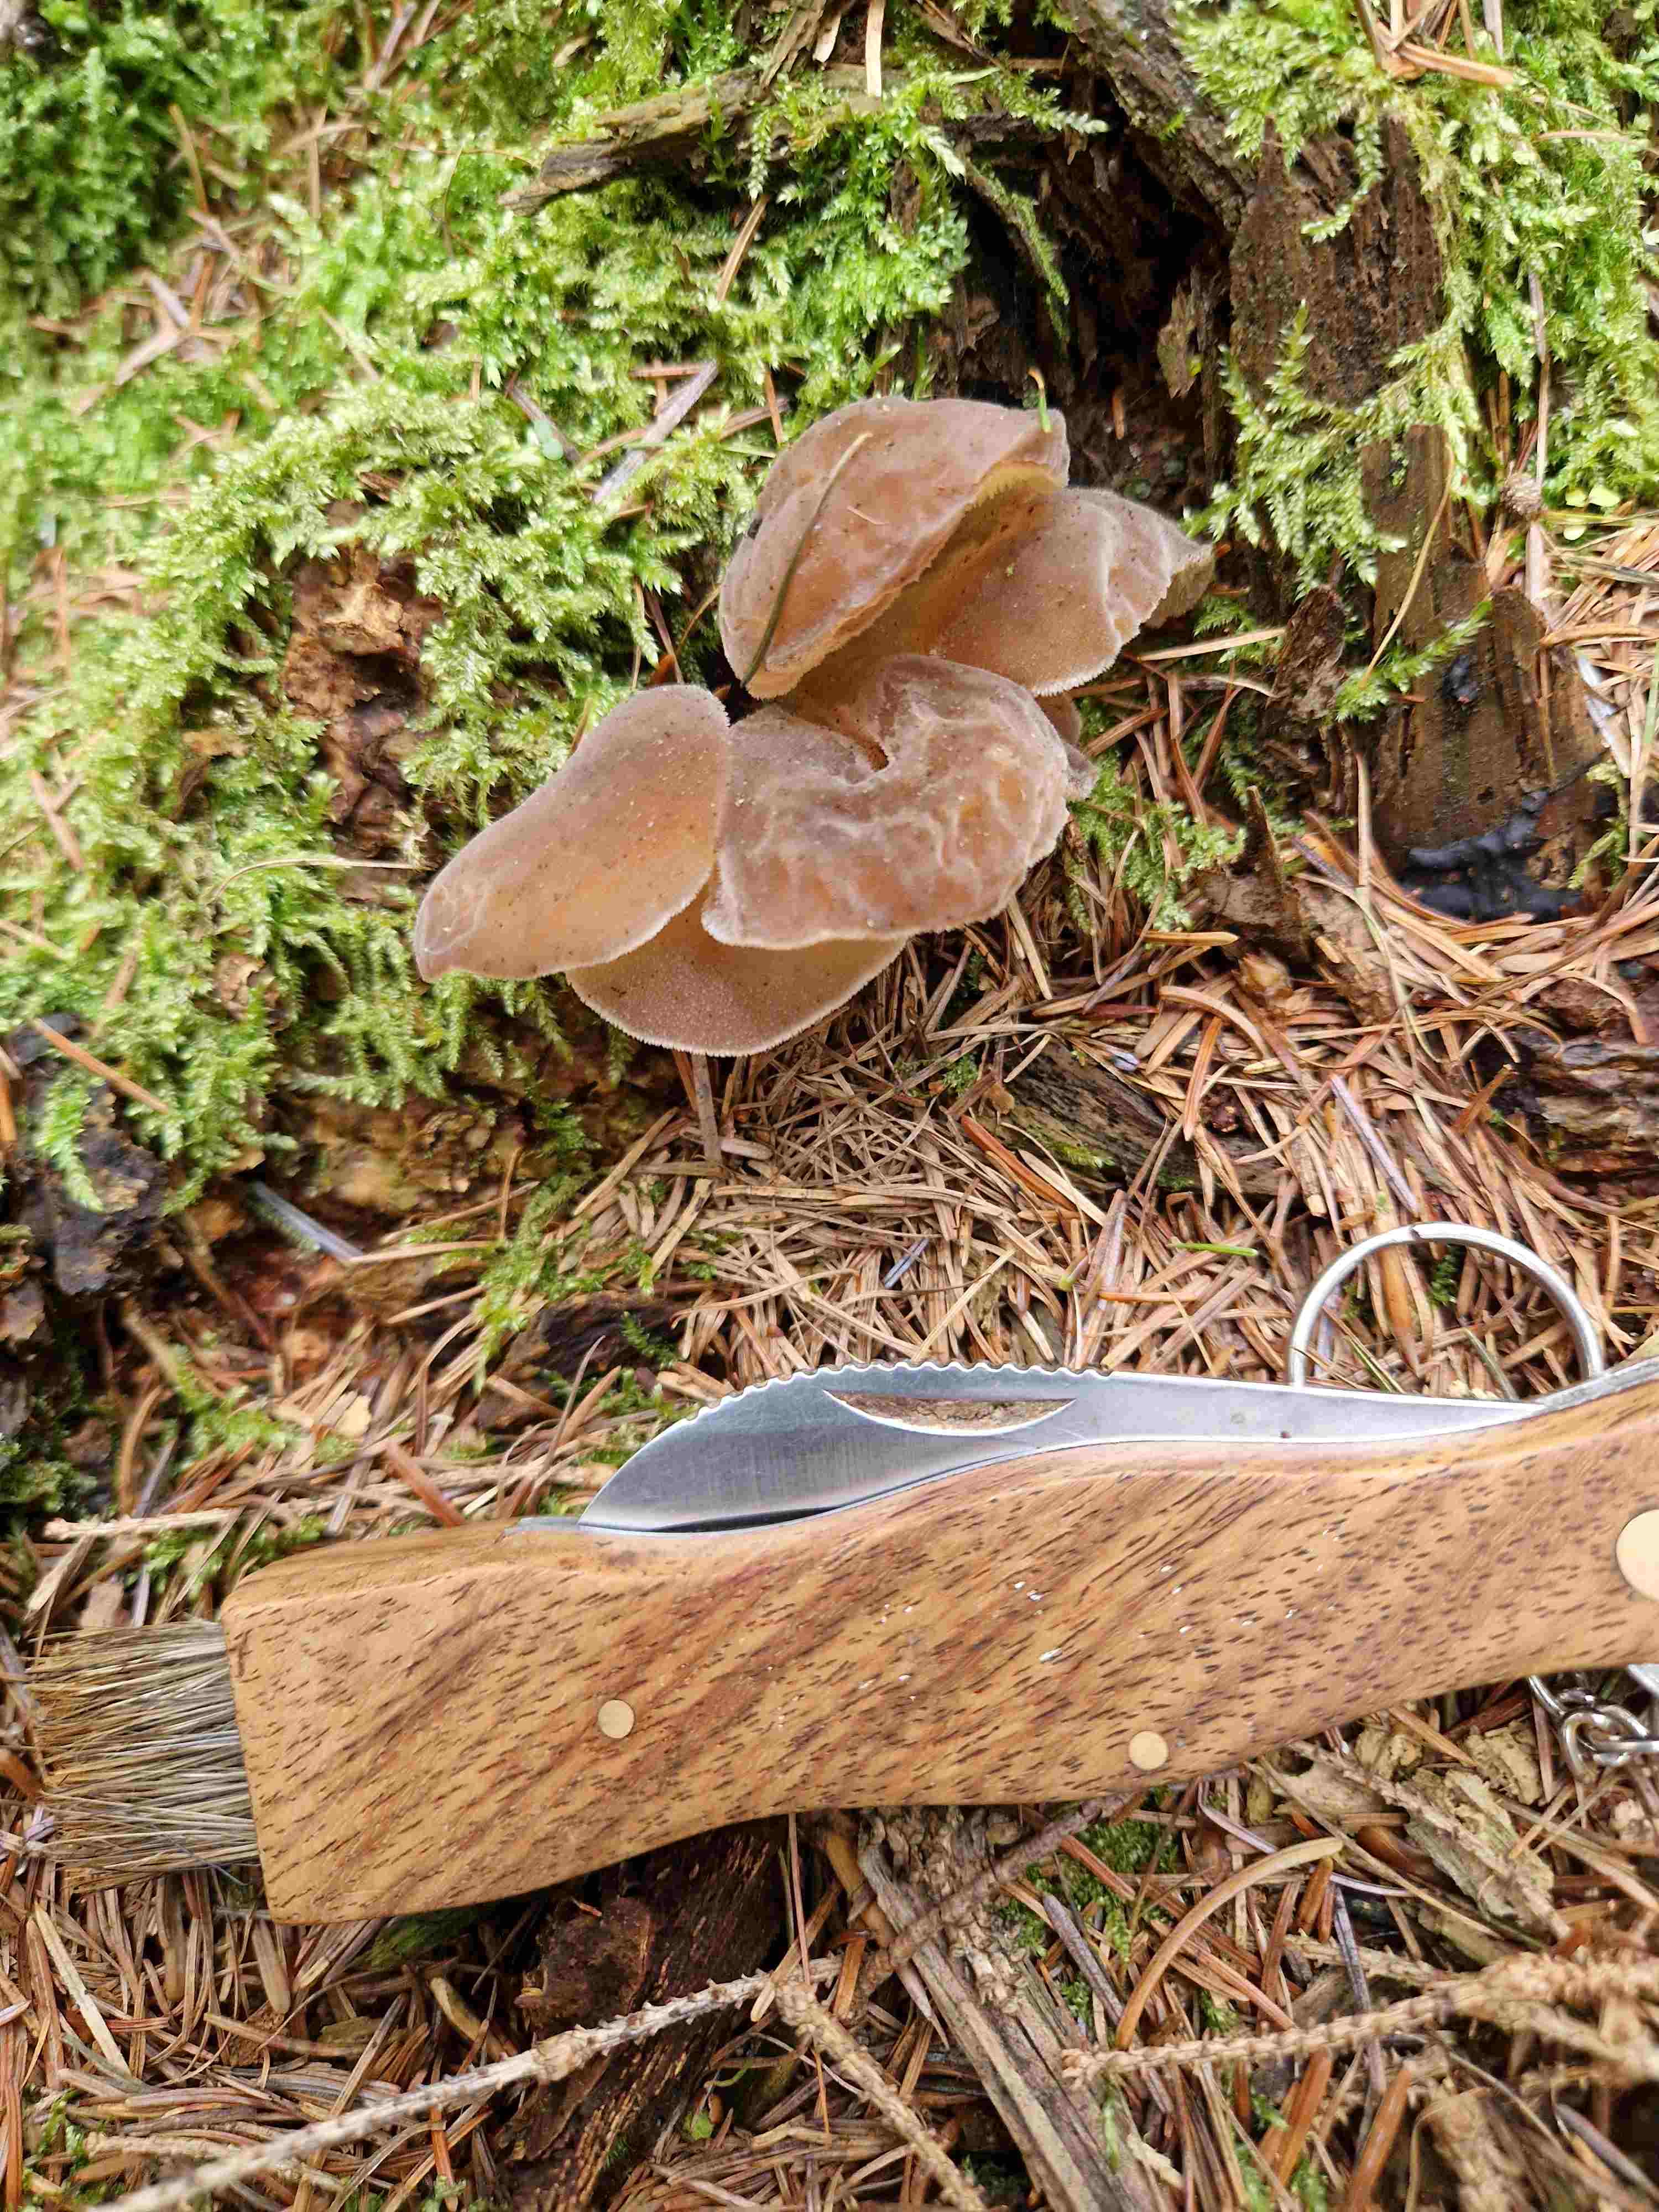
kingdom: Fungi
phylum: Basidiomycota
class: Agaricomycetes
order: Auriculariales
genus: Pseudohydnum
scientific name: Pseudohydnum gelatinosum
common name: bævretand
